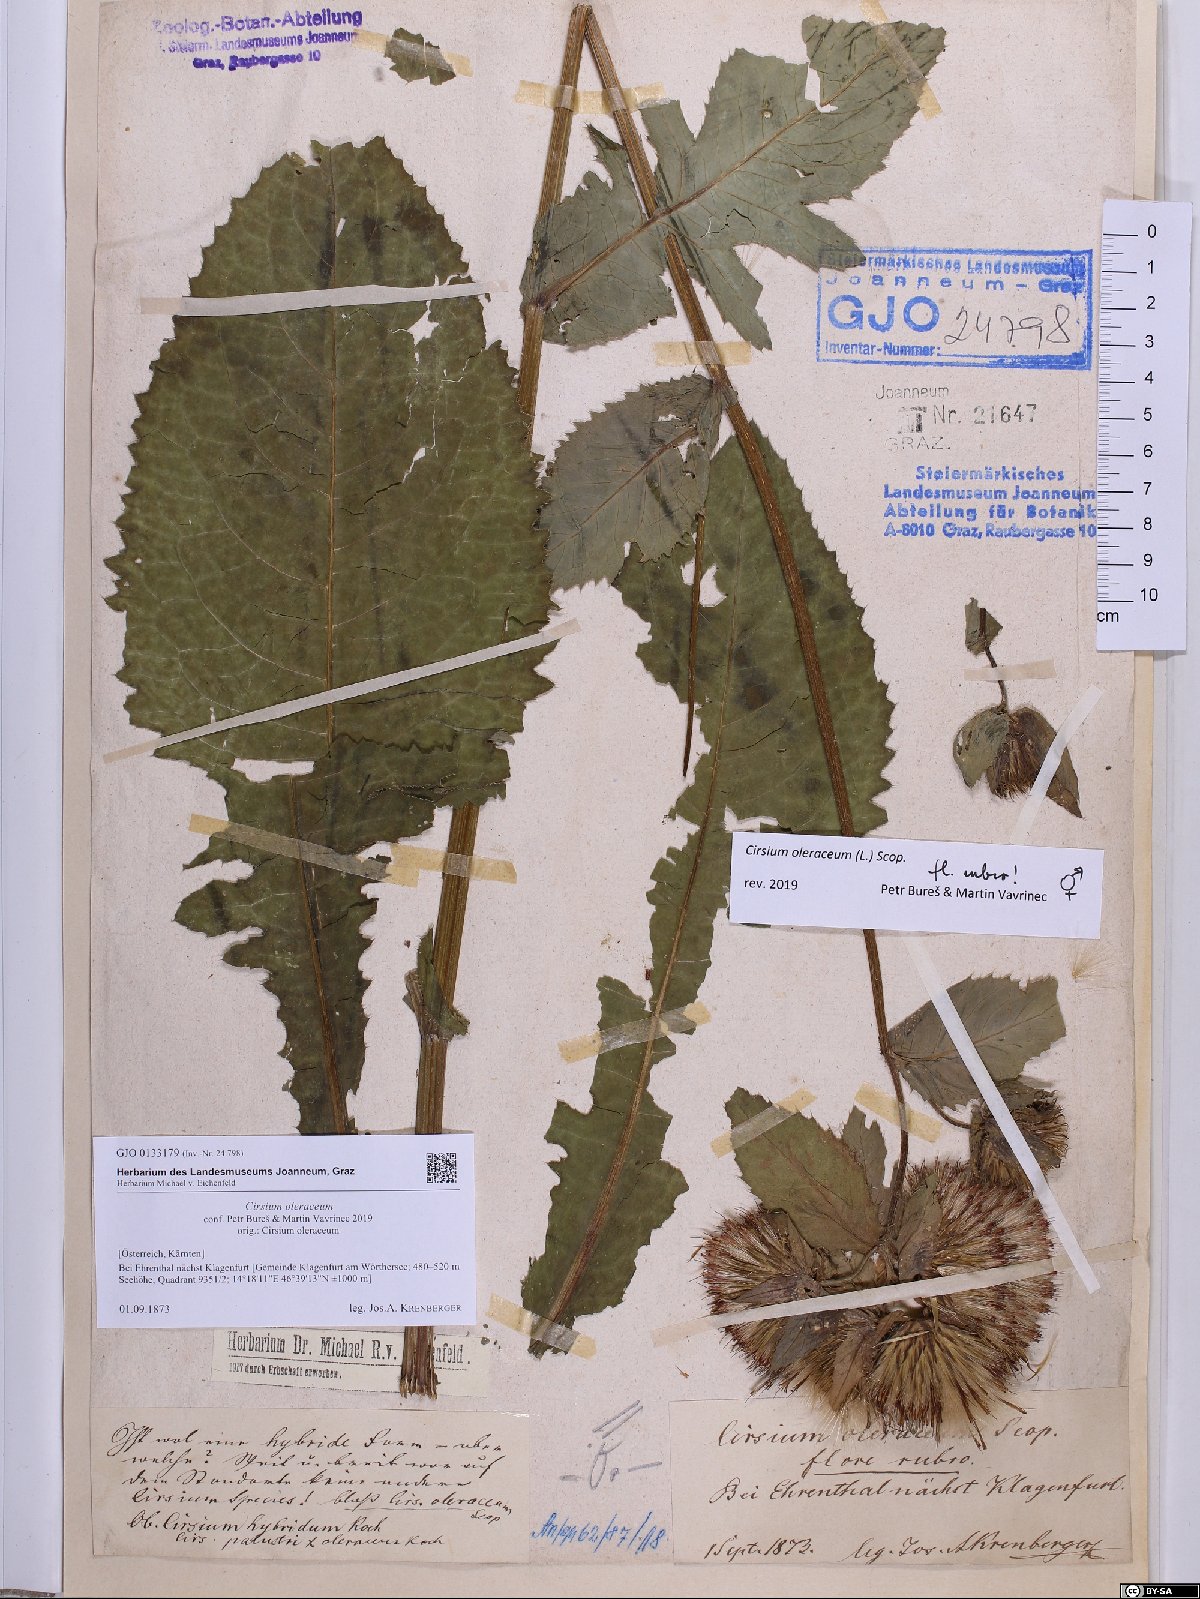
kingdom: Plantae
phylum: Tracheophyta
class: Magnoliopsida
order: Asterales
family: Asteraceae
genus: Cirsium
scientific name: Cirsium oleraceum
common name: Cabbage thistle
